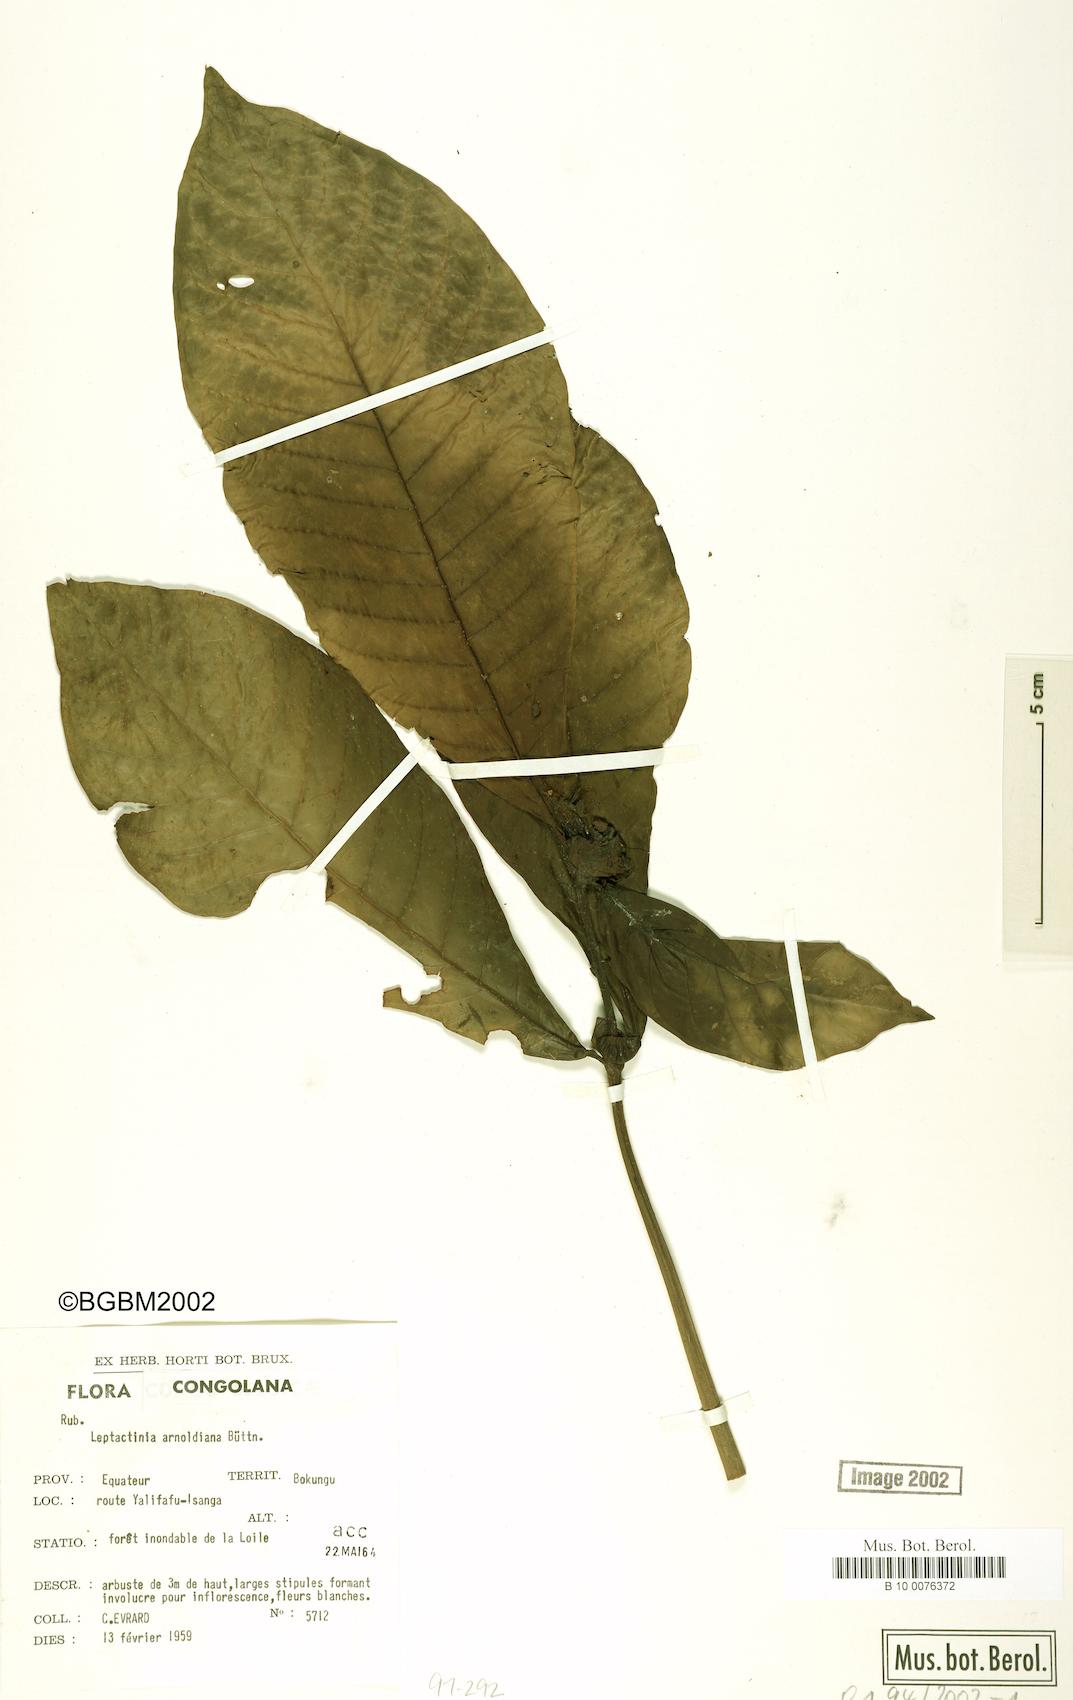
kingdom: Plantae
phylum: Tracheophyta
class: Magnoliopsida
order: Gentianales
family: Rubiaceae
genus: Leptactina
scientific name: Leptactina mannii
